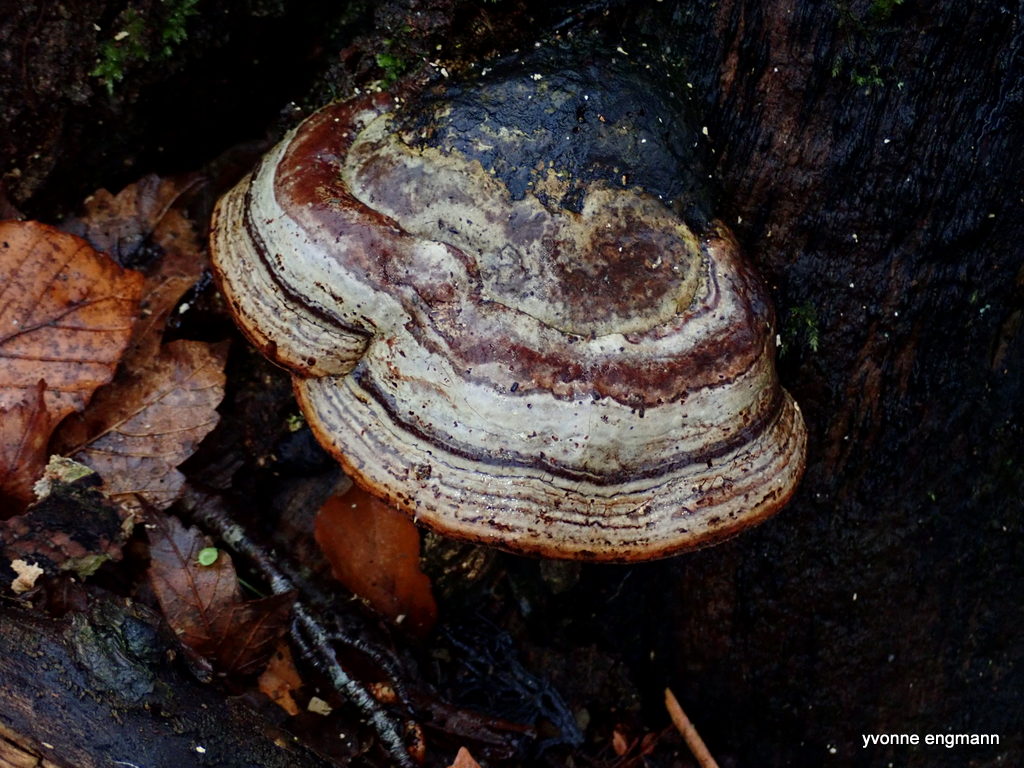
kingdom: Fungi
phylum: Basidiomycota
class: Agaricomycetes
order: Polyporales
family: Polyporaceae
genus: Fomes
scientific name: Fomes fomentarius
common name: tøndersvamp
